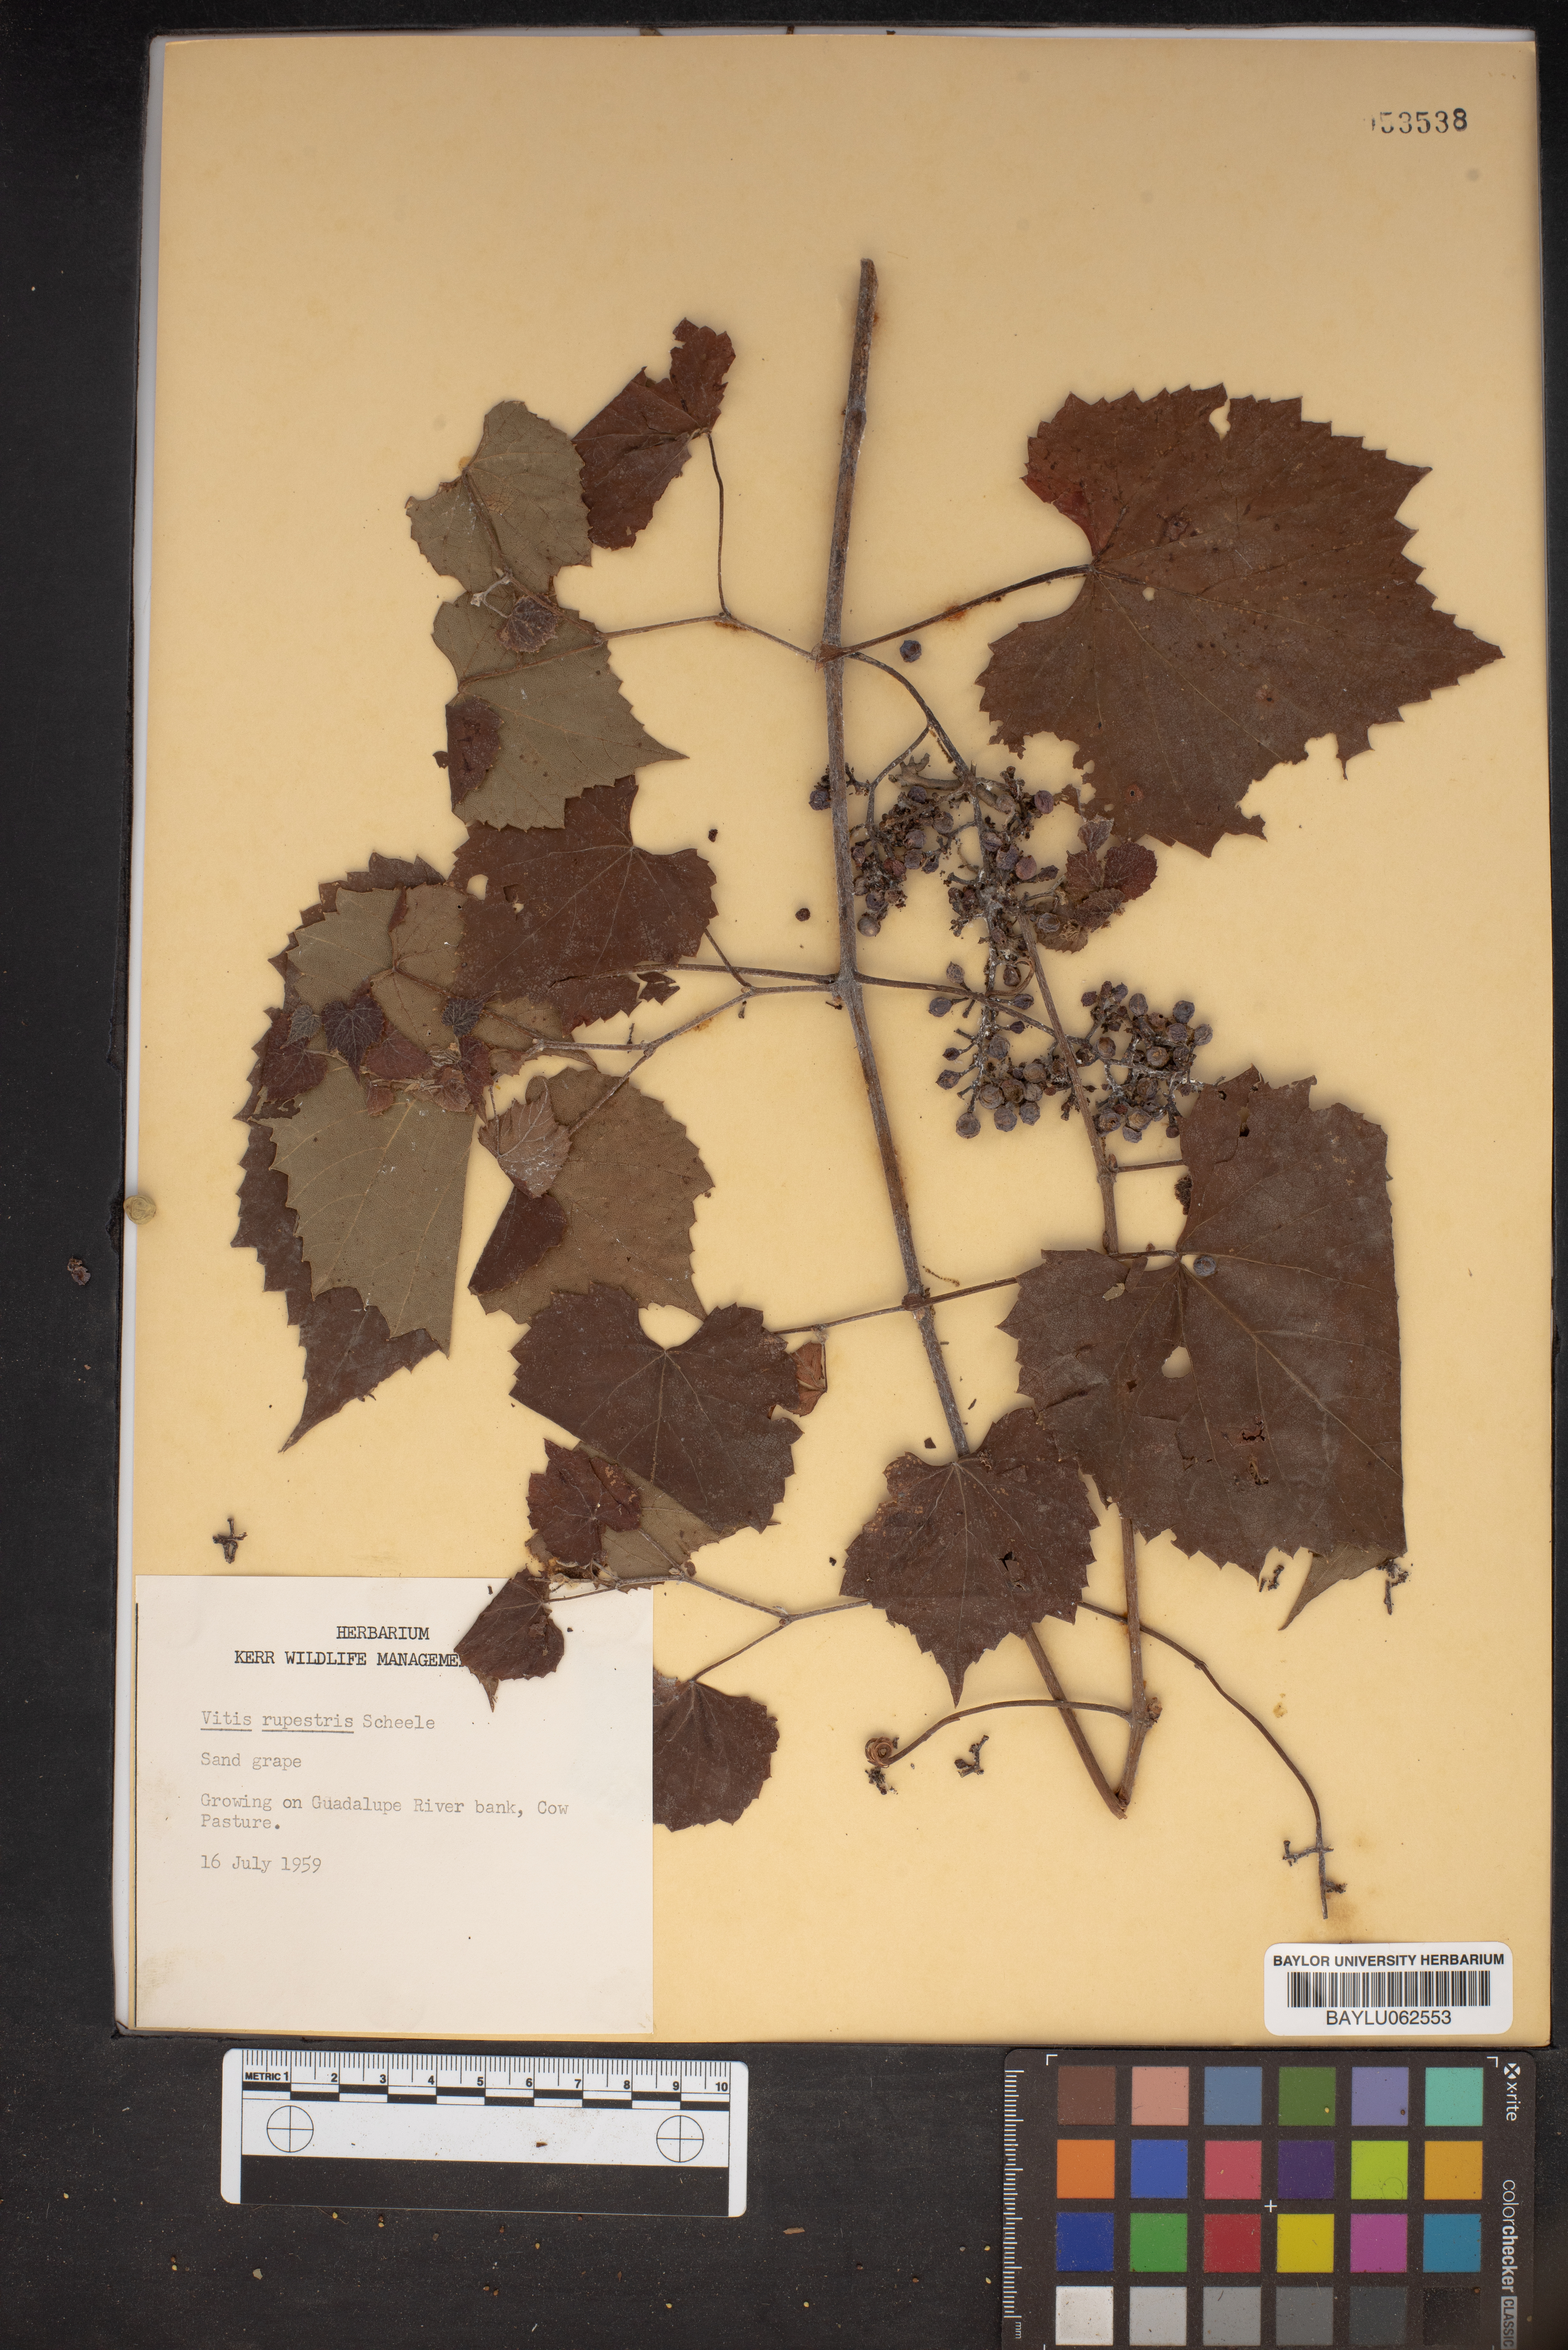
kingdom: Plantae
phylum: Tracheophyta
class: Magnoliopsida
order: Vitales
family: Vitaceae
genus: Vitis
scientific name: Vitis rupestris
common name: Rock grape
